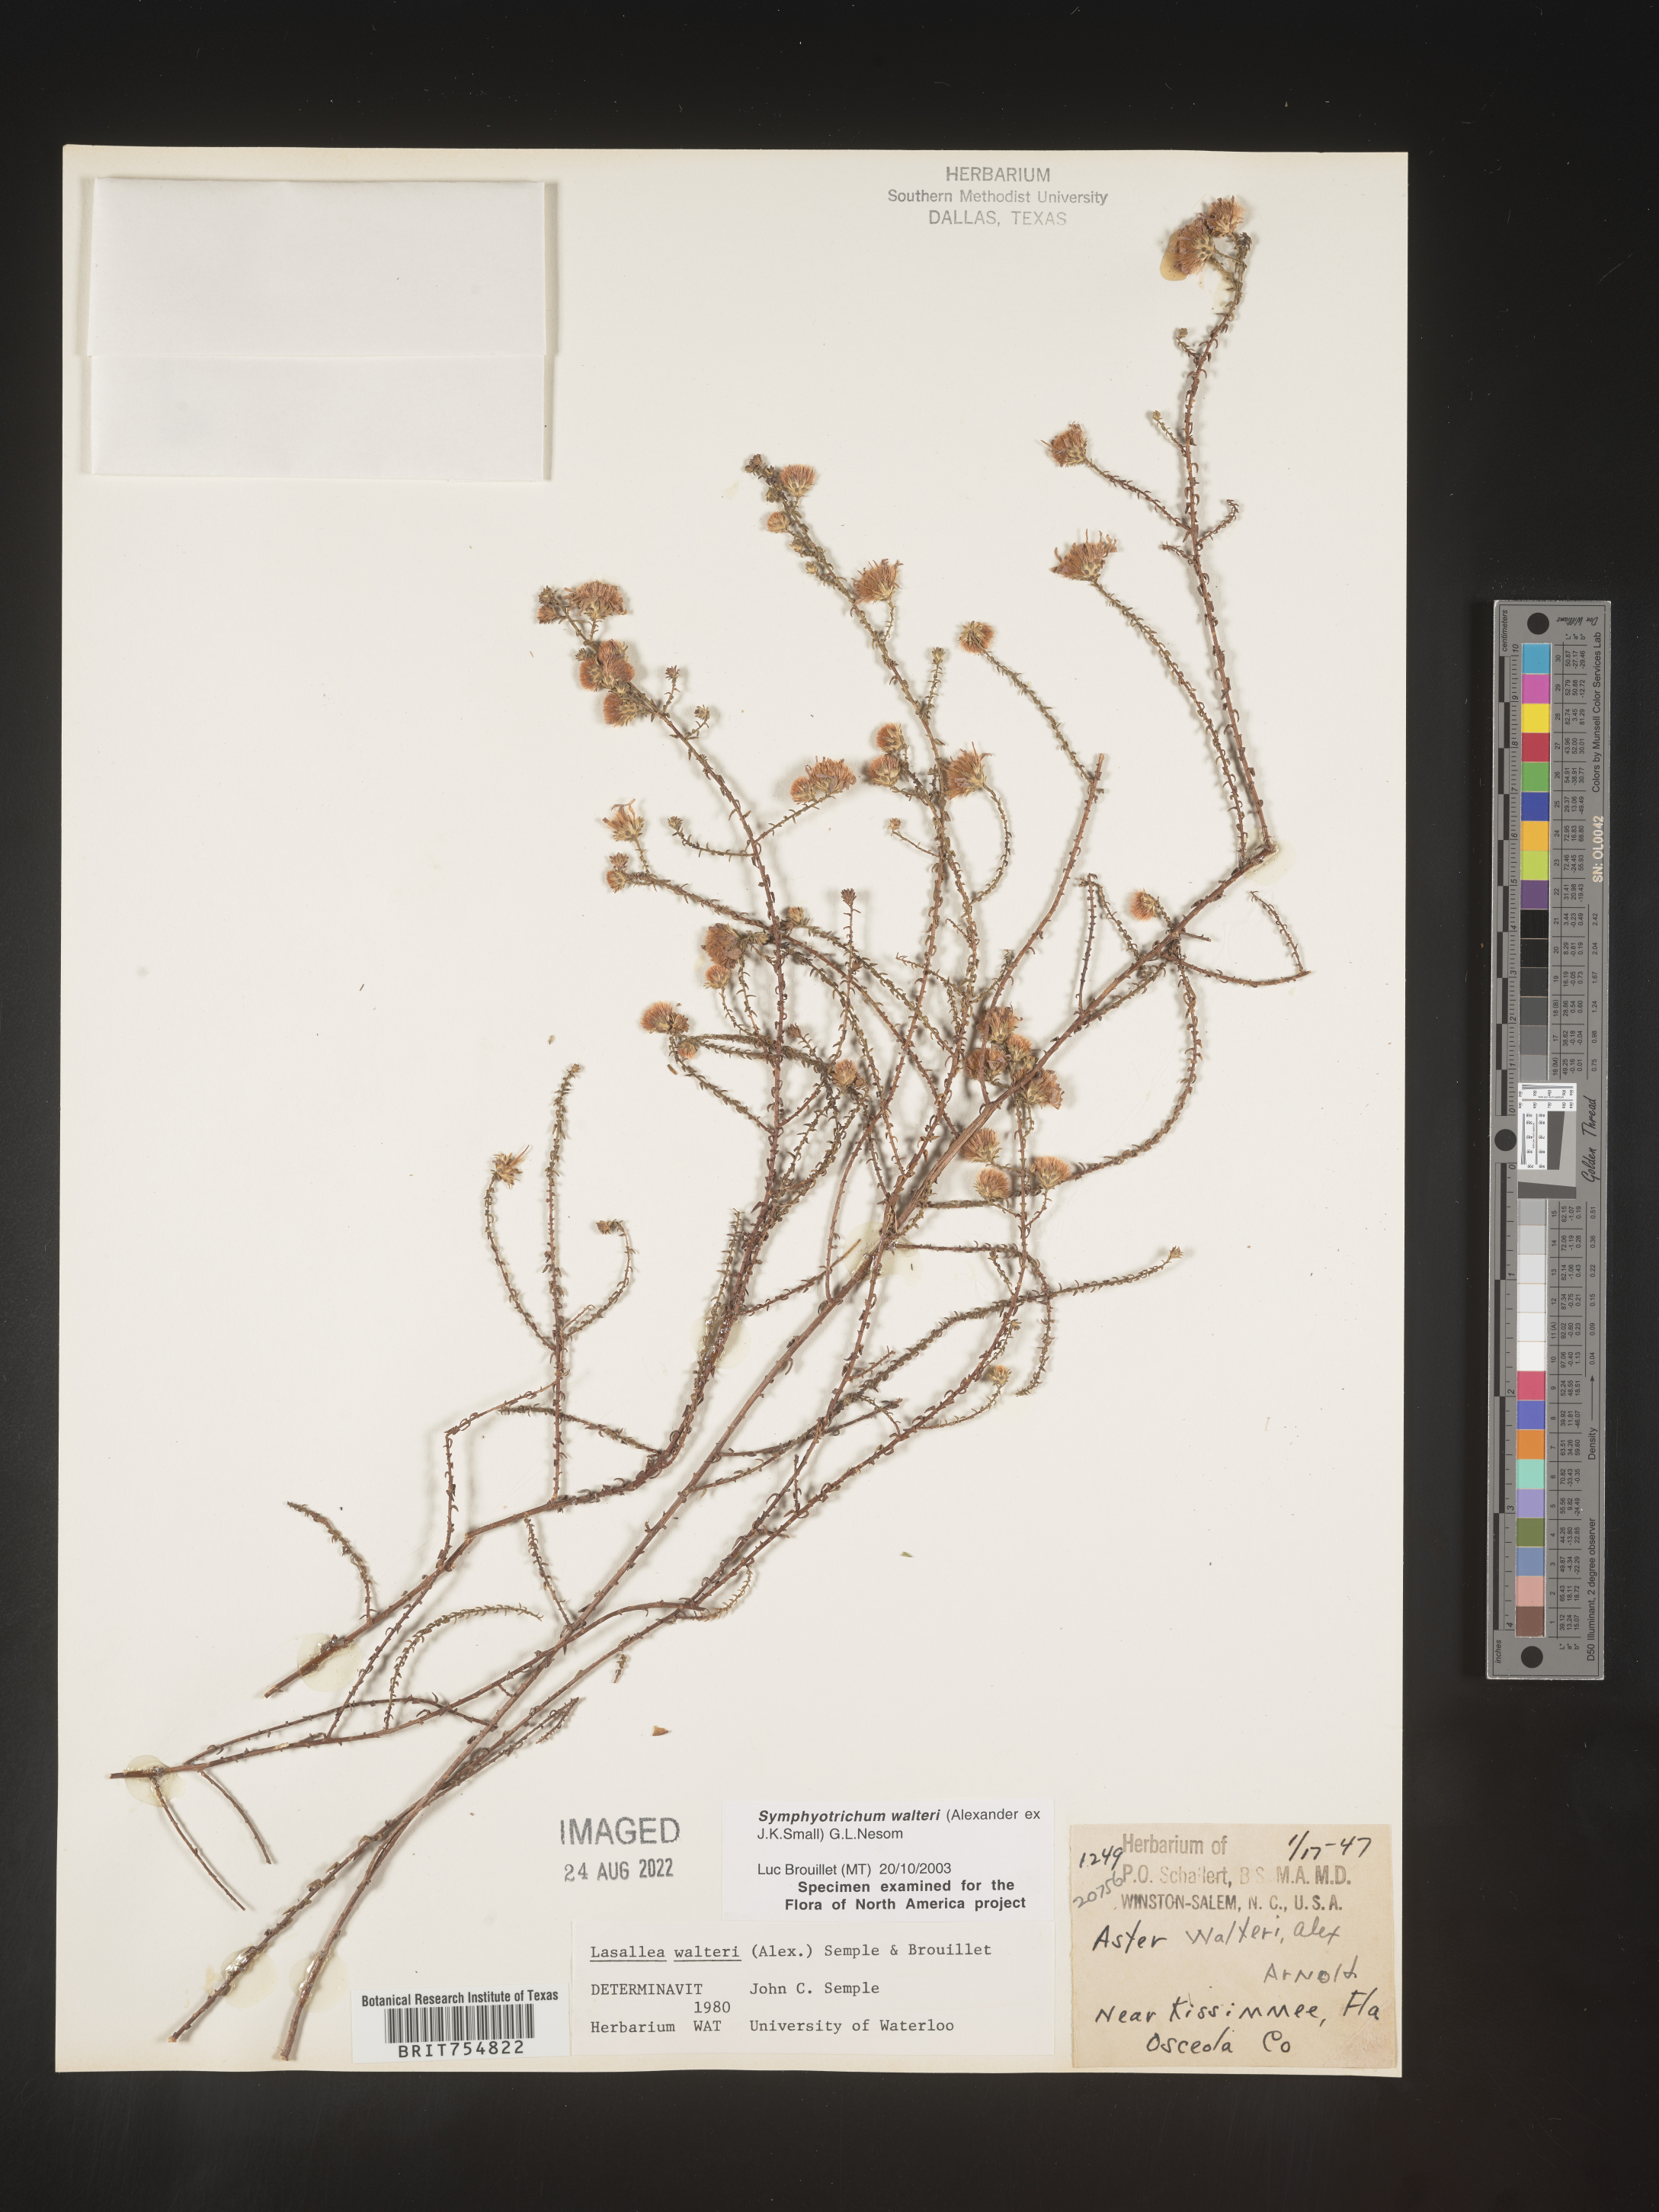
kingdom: Plantae
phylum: Tracheophyta
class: Magnoliopsida
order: Asterales
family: Asteraceae
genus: Symphyotrichum
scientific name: Symphyotrichum walteri
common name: Walter's aster
